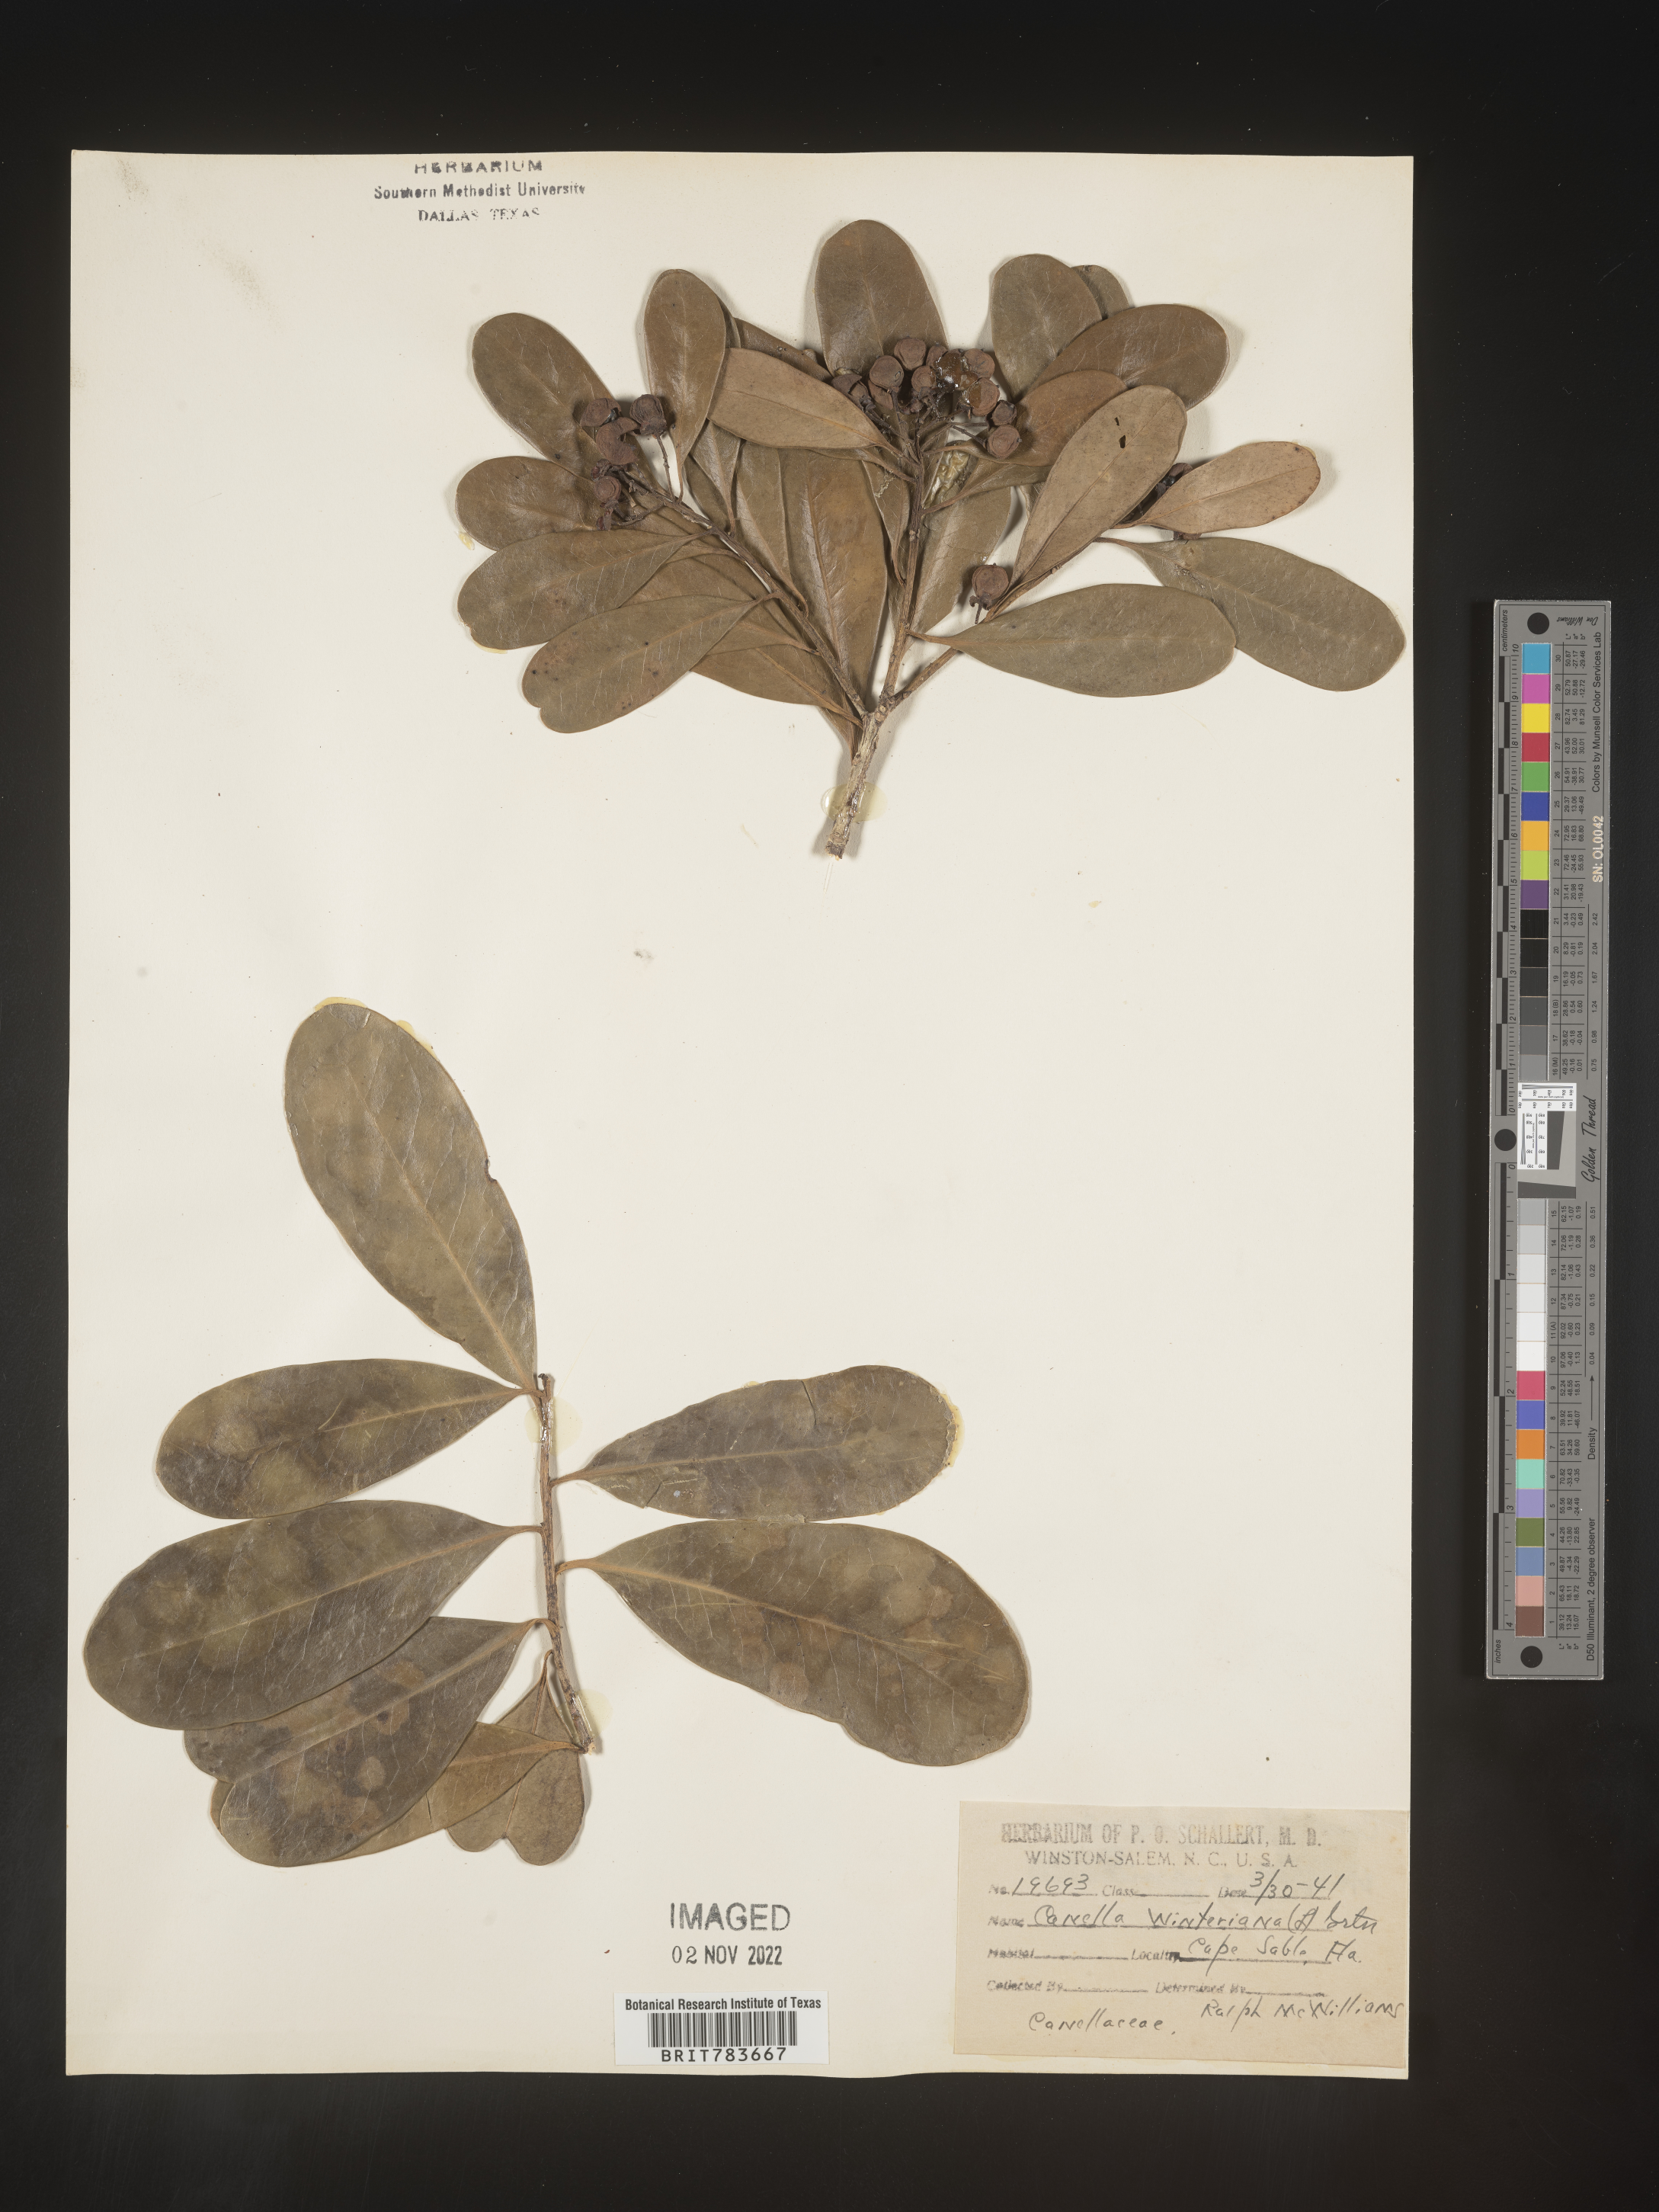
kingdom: Plantae
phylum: Tracheophyta
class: Magnoliopsida
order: Canellales
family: Canellaceae
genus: Canella
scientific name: Canella
